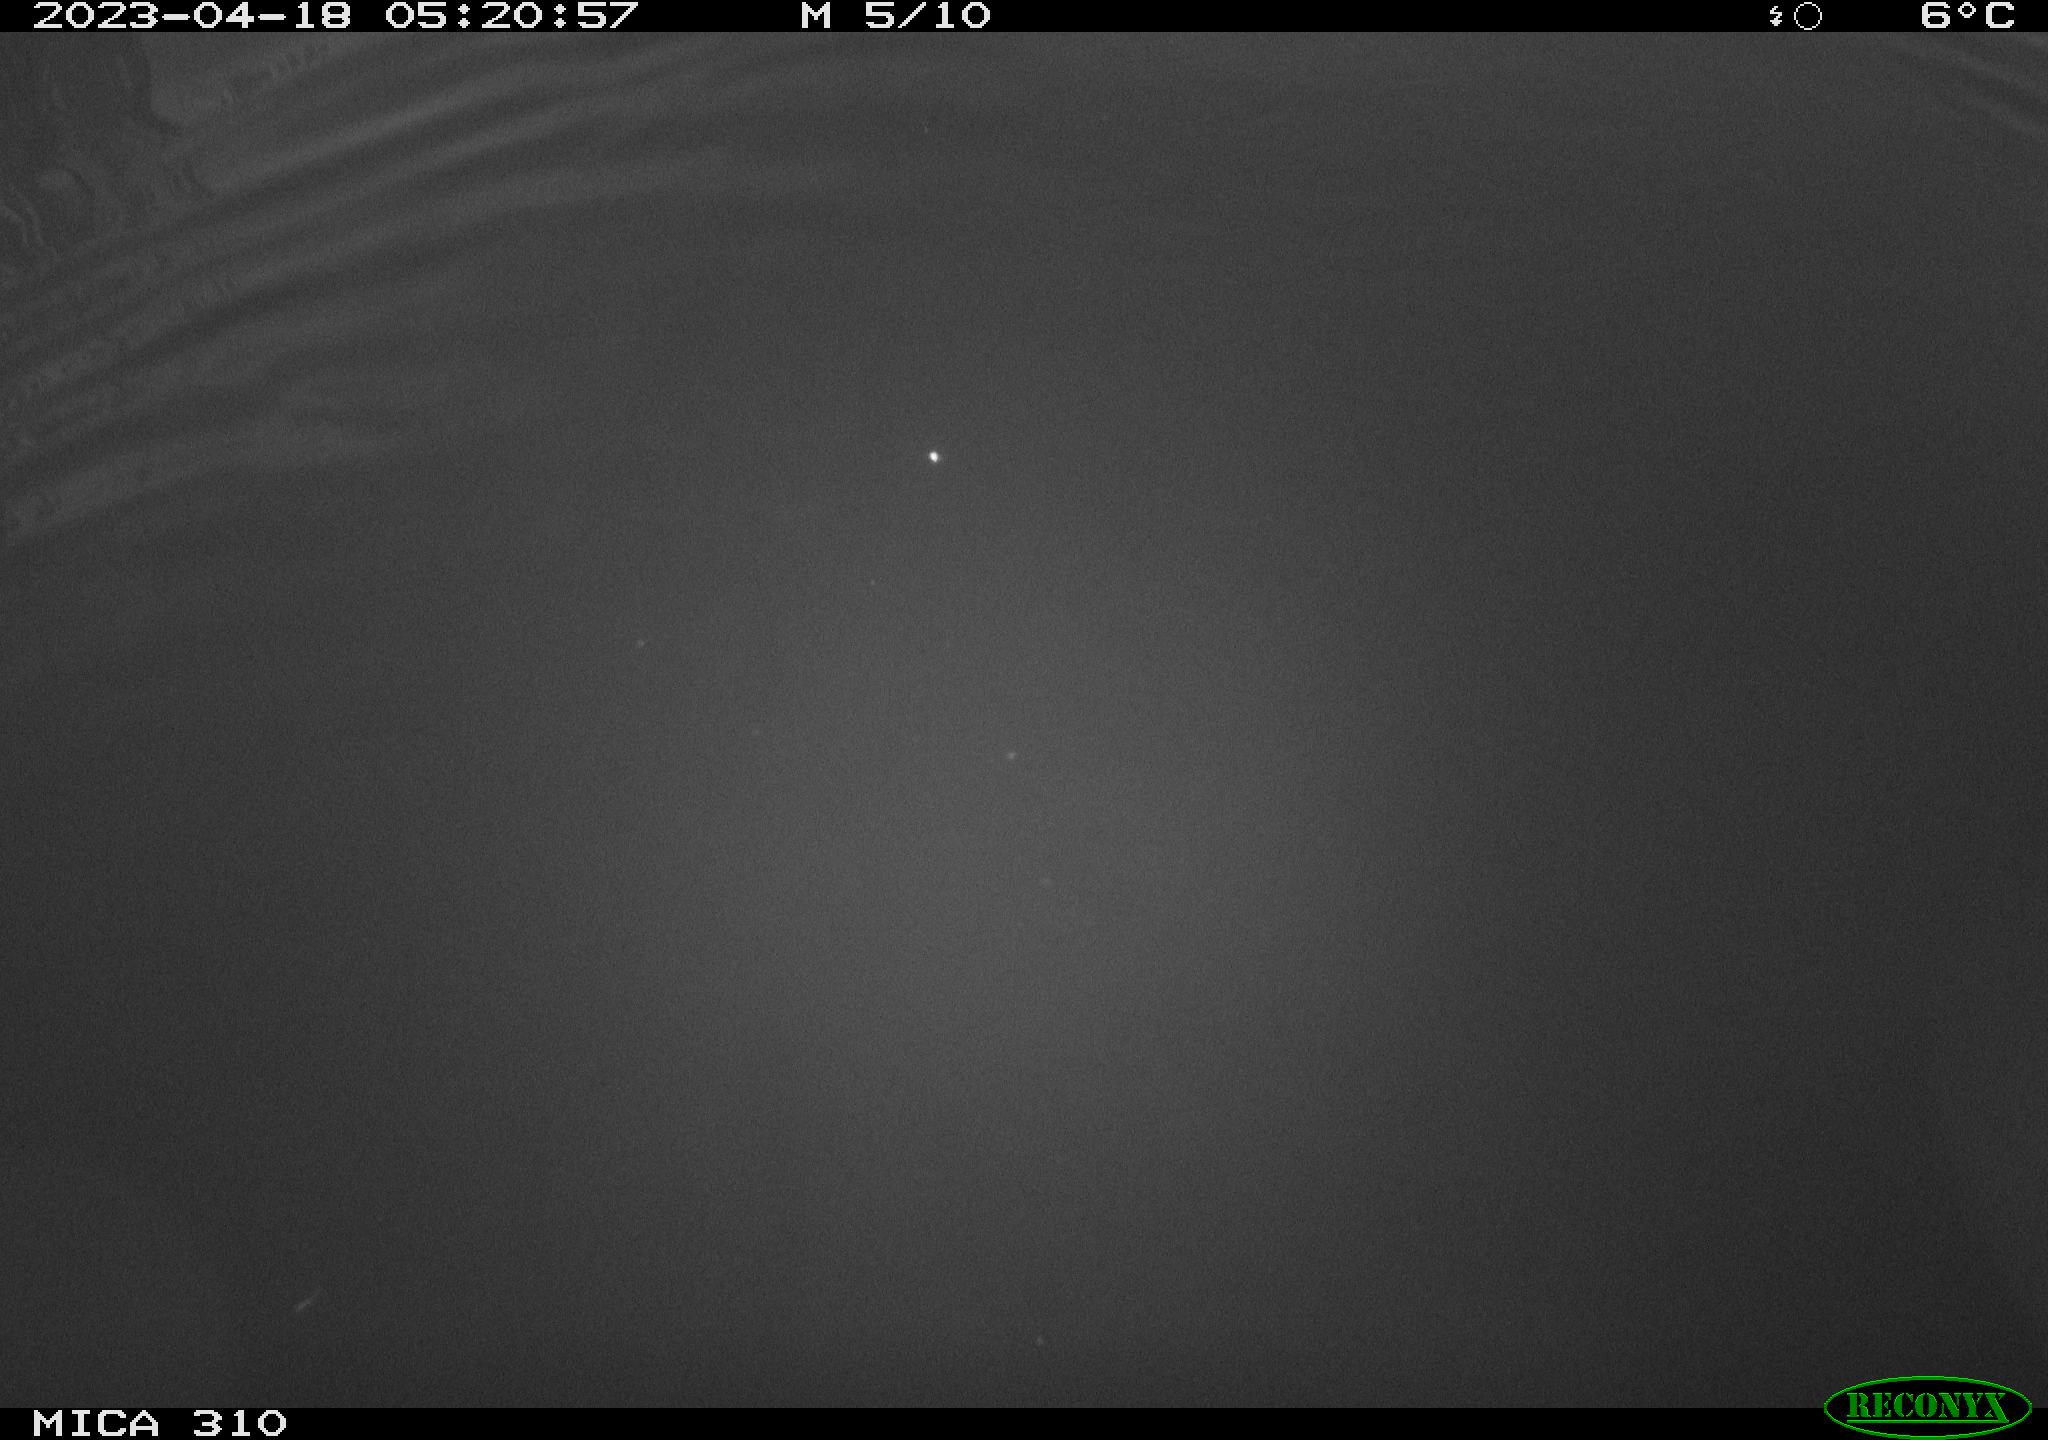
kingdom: Animalia
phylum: Chordata
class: Aves
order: Pelecaniformes
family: Ardeidae
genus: Ardea
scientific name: Ardea cinerea
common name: Grey heron
